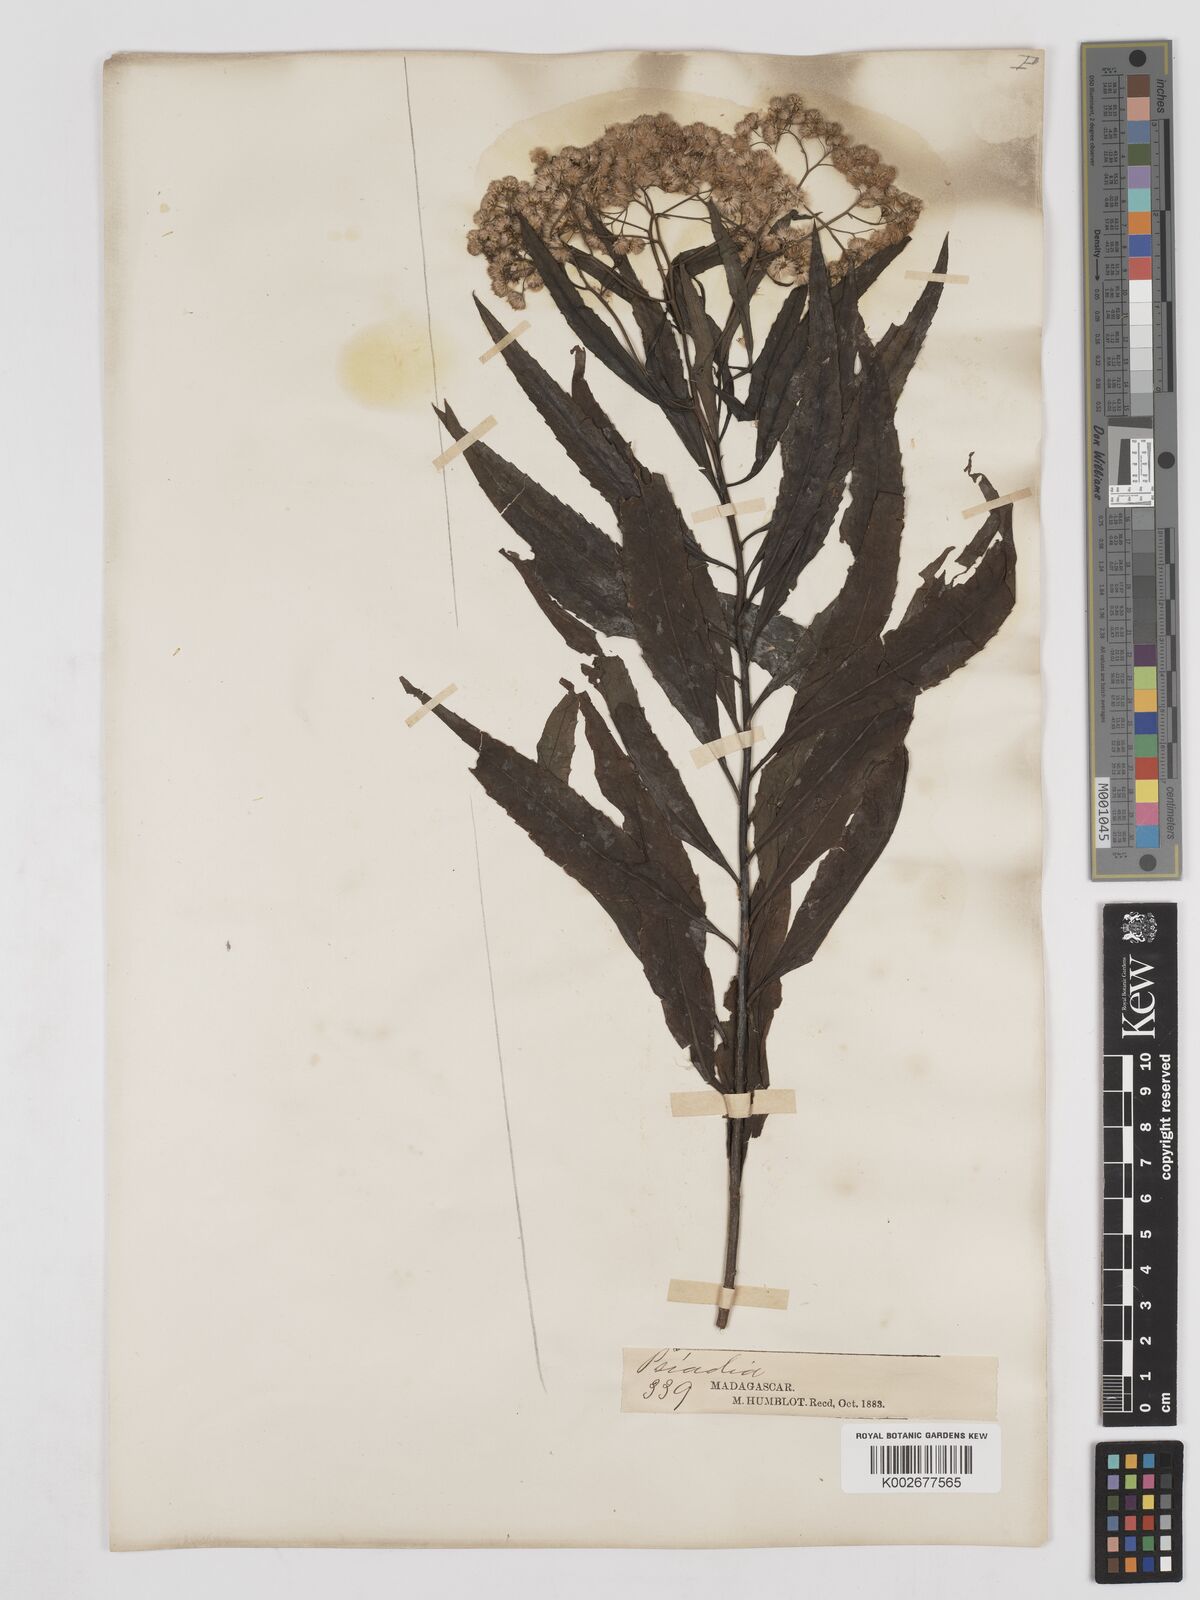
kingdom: Plantae
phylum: Tracheophyta
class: Magnoliopsida
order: Asterales
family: Asteraceae
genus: Psiadia
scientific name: Psiadia
